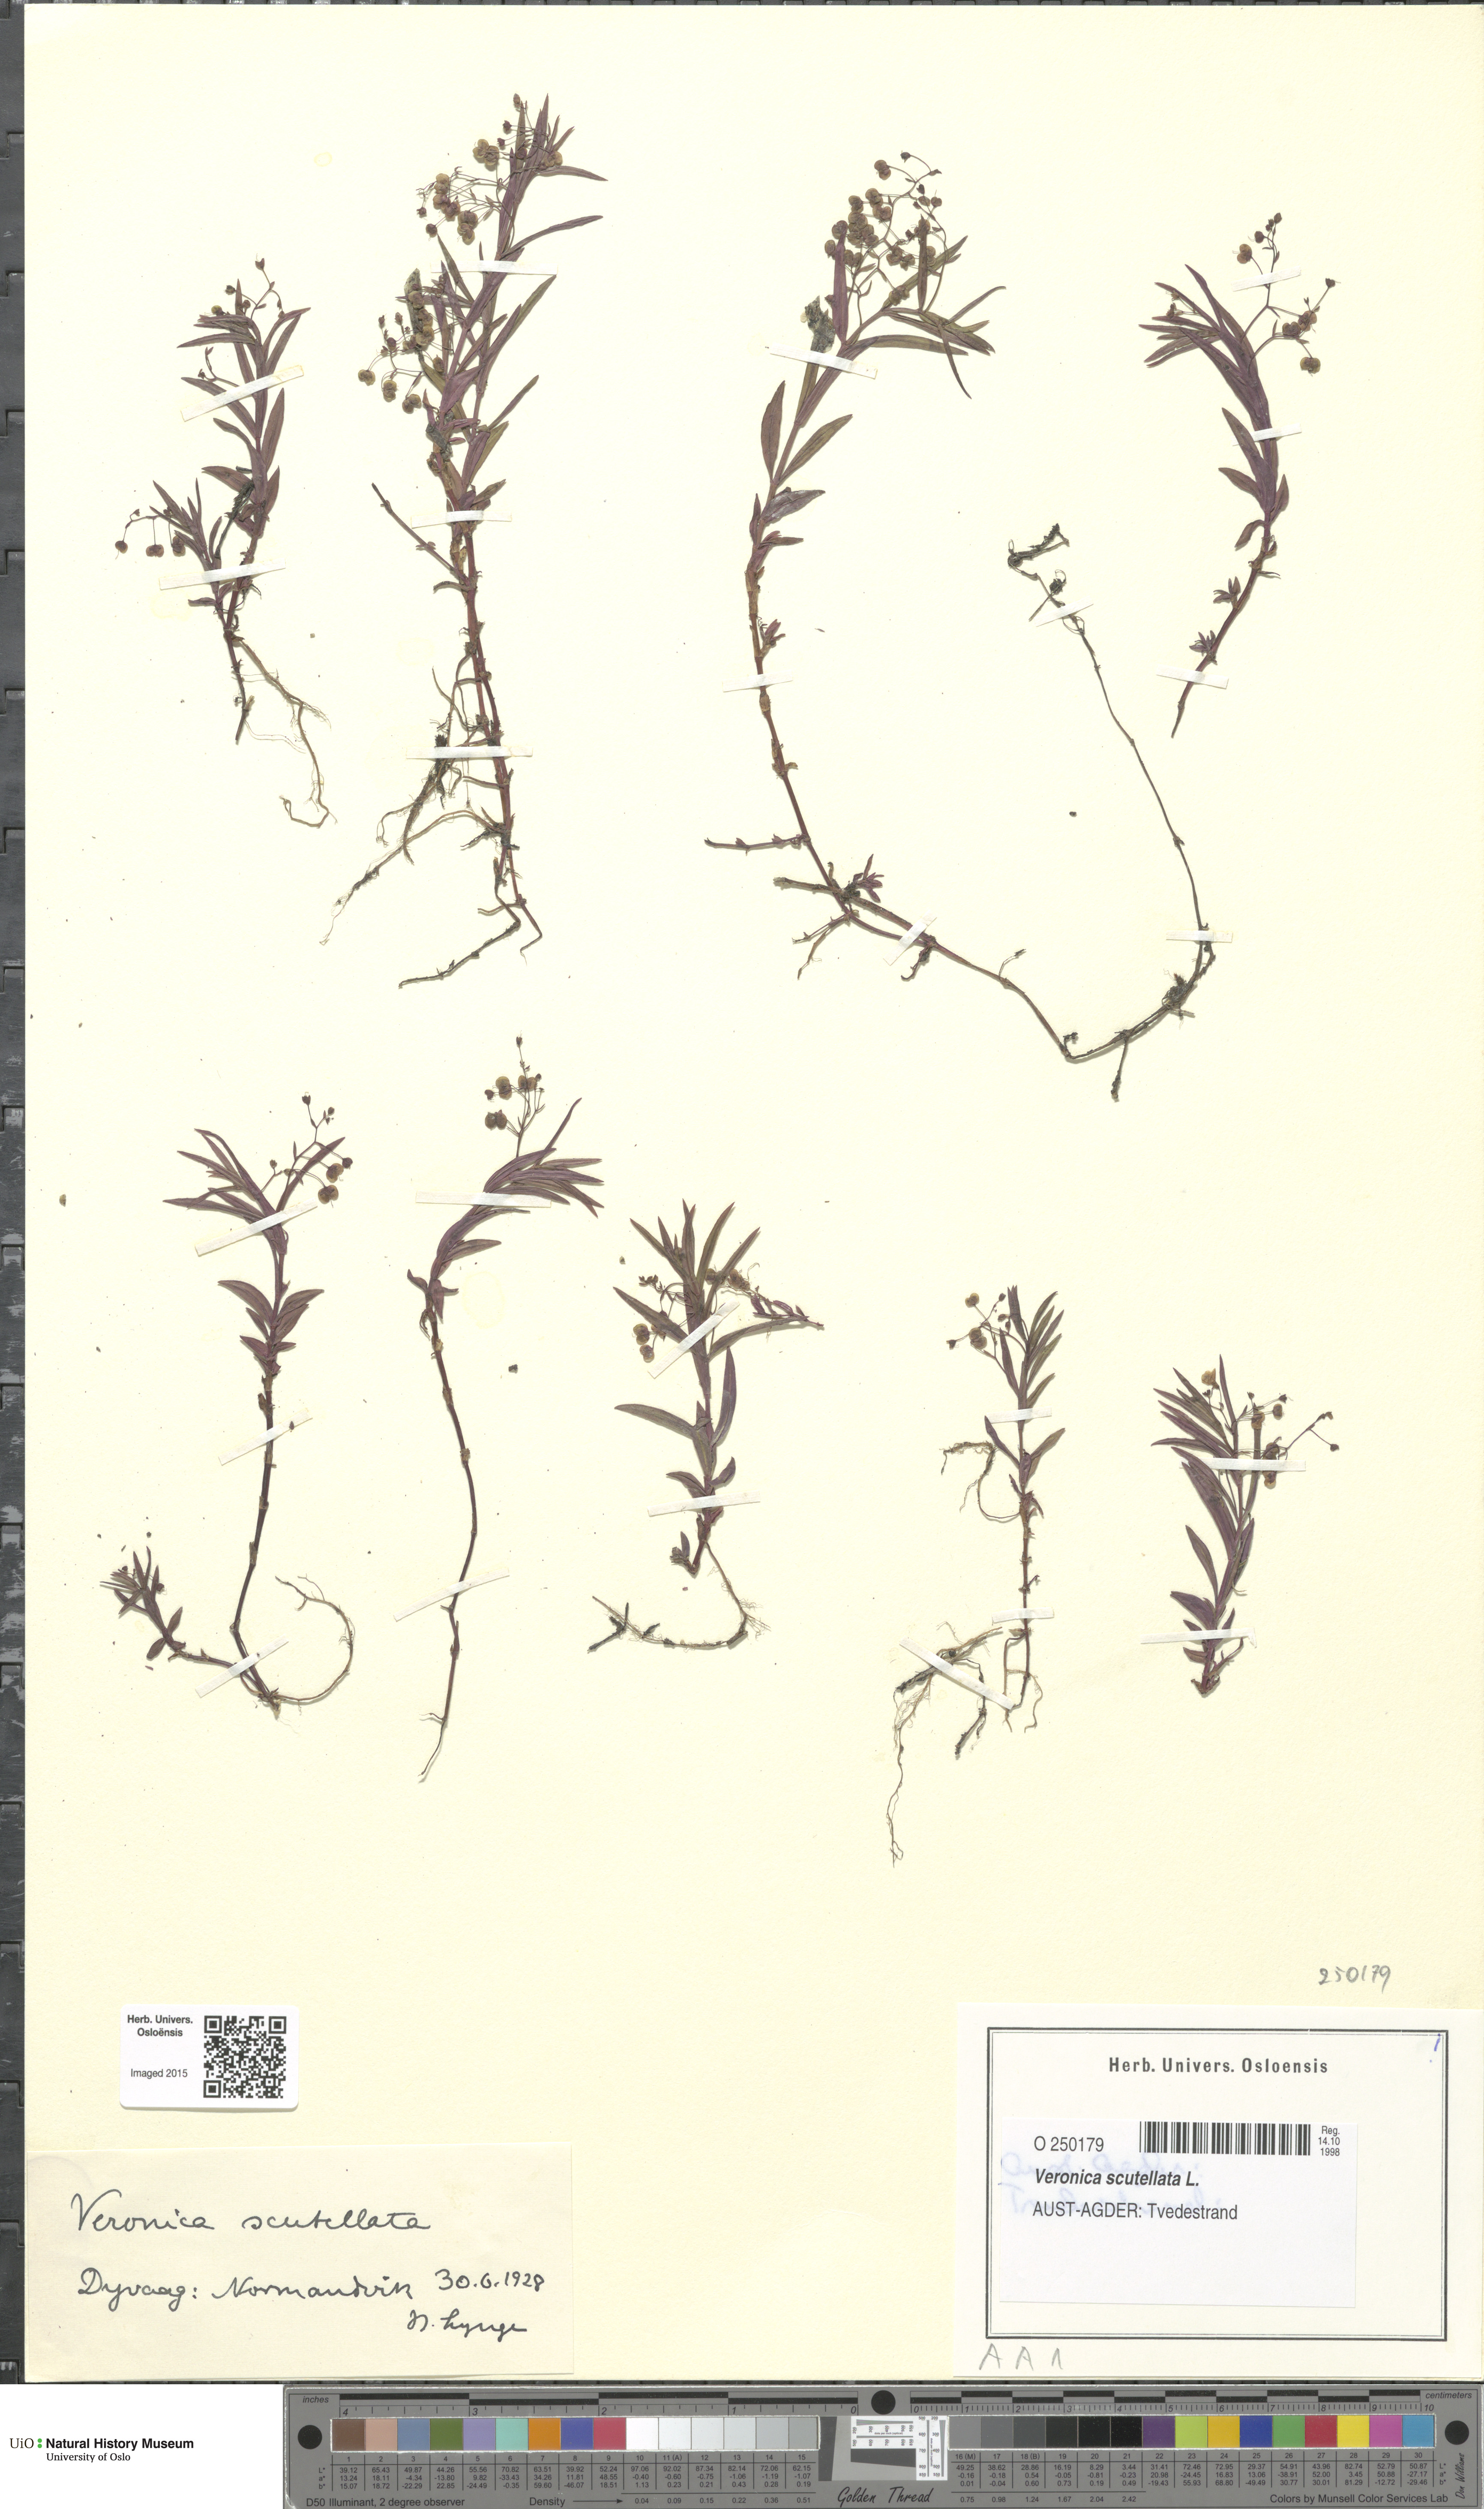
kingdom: Plantae
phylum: Tracheophyta
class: Magnoliopsida
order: Lamiales
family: Plantaginaceae
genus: Veronica
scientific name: Veronica scutellata
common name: Marsh speedwell
